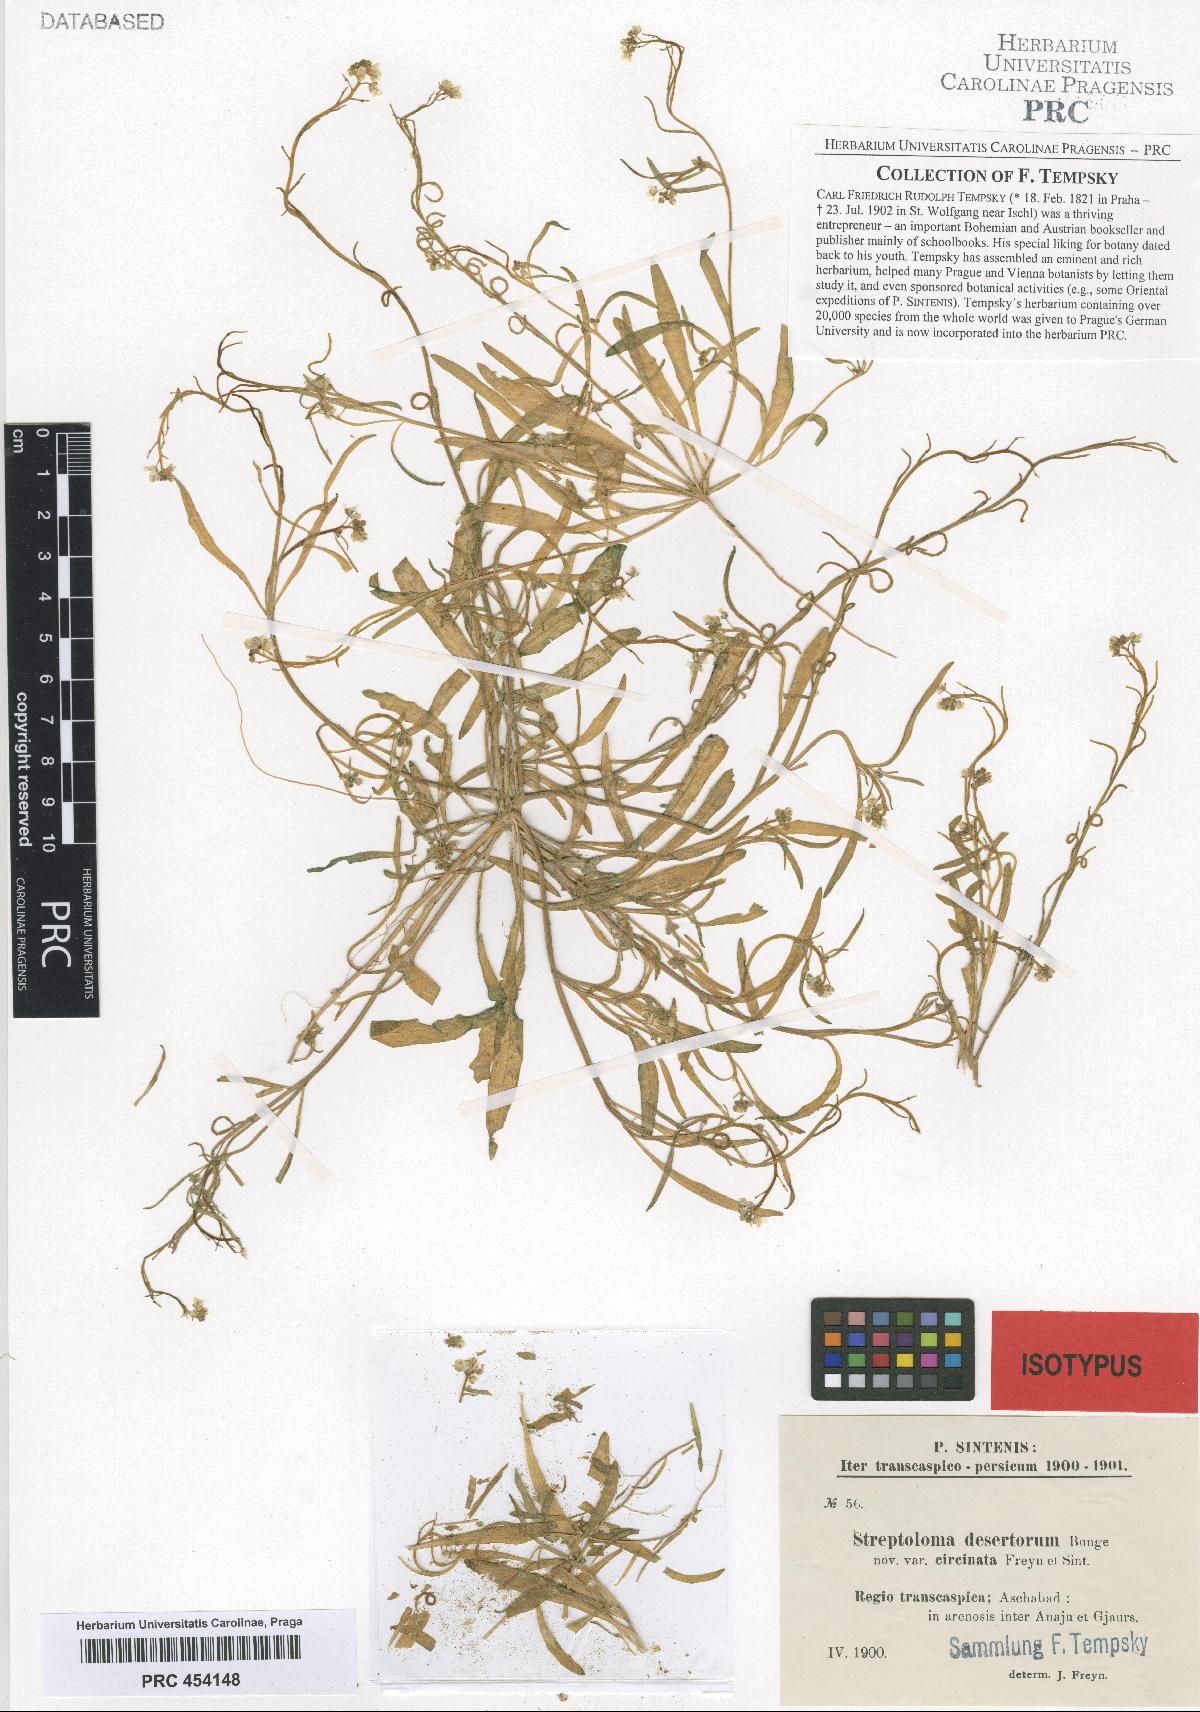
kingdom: Plantae
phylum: Tracheophyta
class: Magnoliopsida
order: Brassicales
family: Brassicaceae
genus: Streptoloma
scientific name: Streptoloma desertorum
